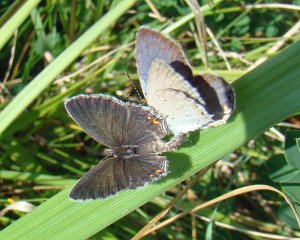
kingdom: Animalia
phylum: Arthropoda
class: Insecta
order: Lepidoptera
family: Lycaenidae
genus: Elkalyce
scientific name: Elkalyce comyntas
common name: Eastern Tailed-Blue
